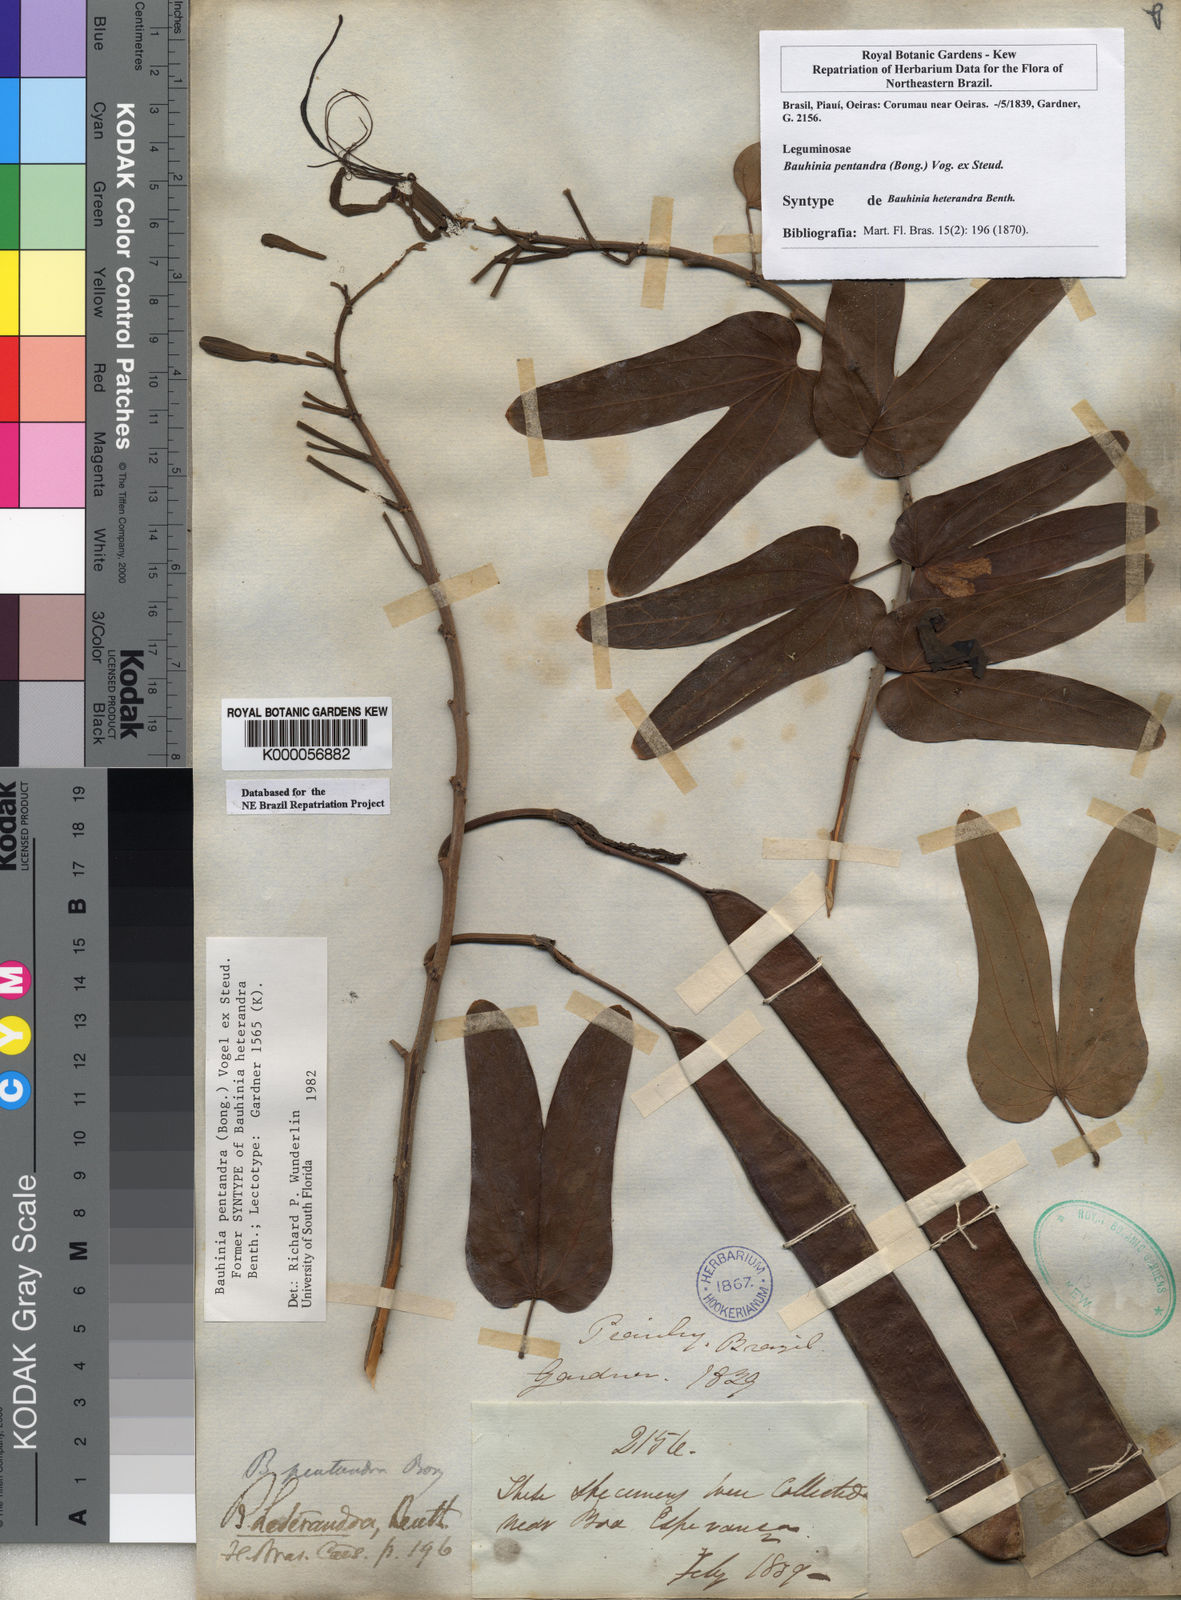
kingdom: Plantae
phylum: Tracheophyta
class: Magnoliopsida
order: Fabales
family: Fabaceae
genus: Bauhinia
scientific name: Bauhinia
